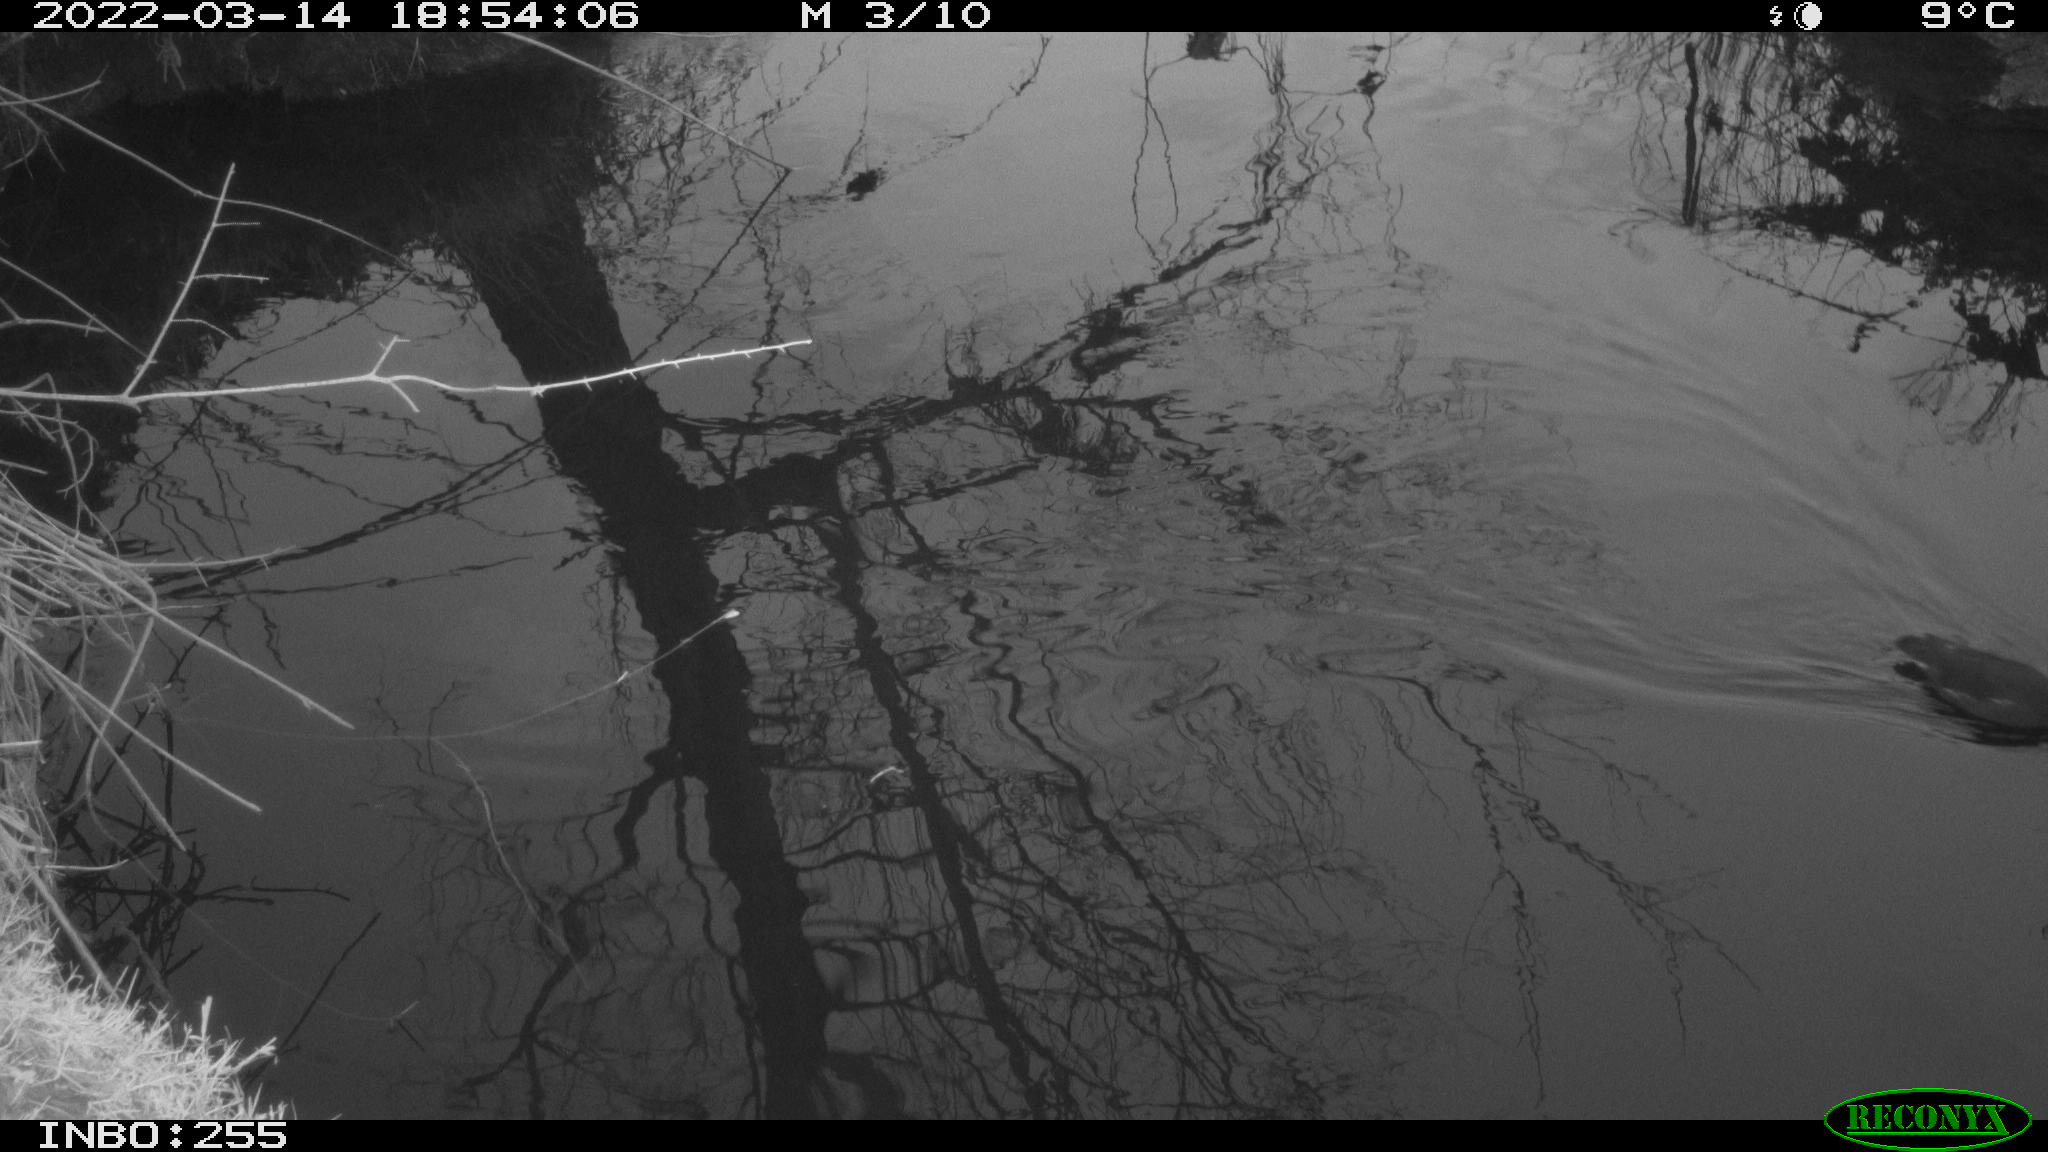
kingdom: Animalia
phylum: Chordata
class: Aves
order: Gruiformes
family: Rallidae
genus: Gallinula
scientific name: Gallinula chloropus
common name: Common moorhen
